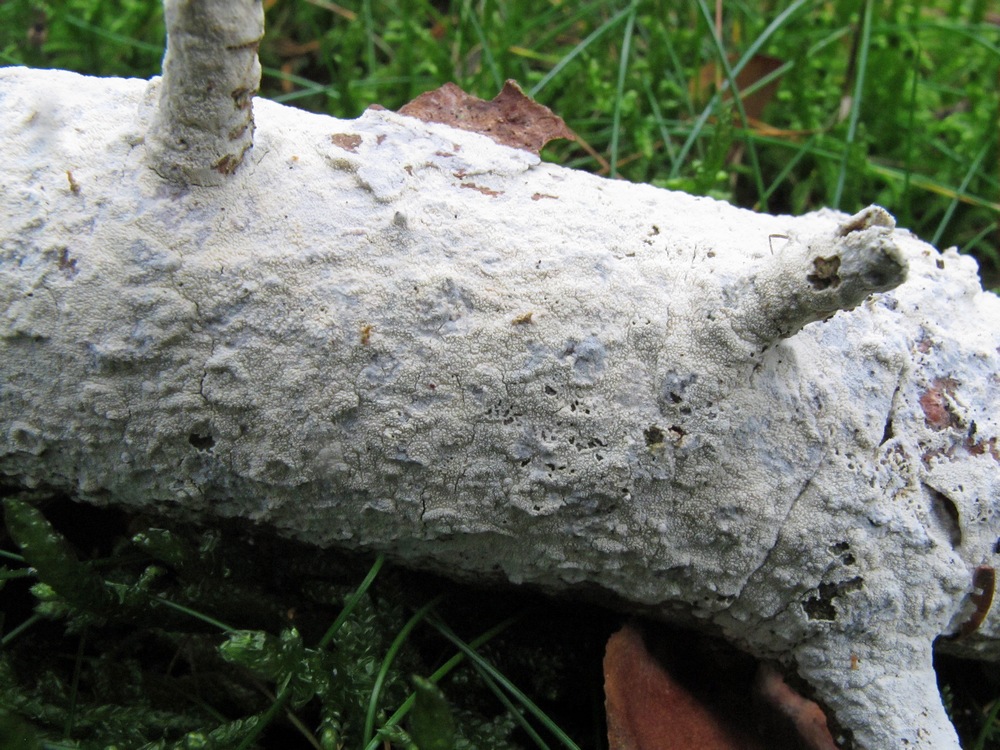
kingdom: Fungi
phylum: Basidiomycota
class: Agaricomycetes
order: Hymenochaetales
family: Schizoporaceae
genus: Xylodon
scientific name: Xylodon nesporii
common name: fintandet tandsvamp
